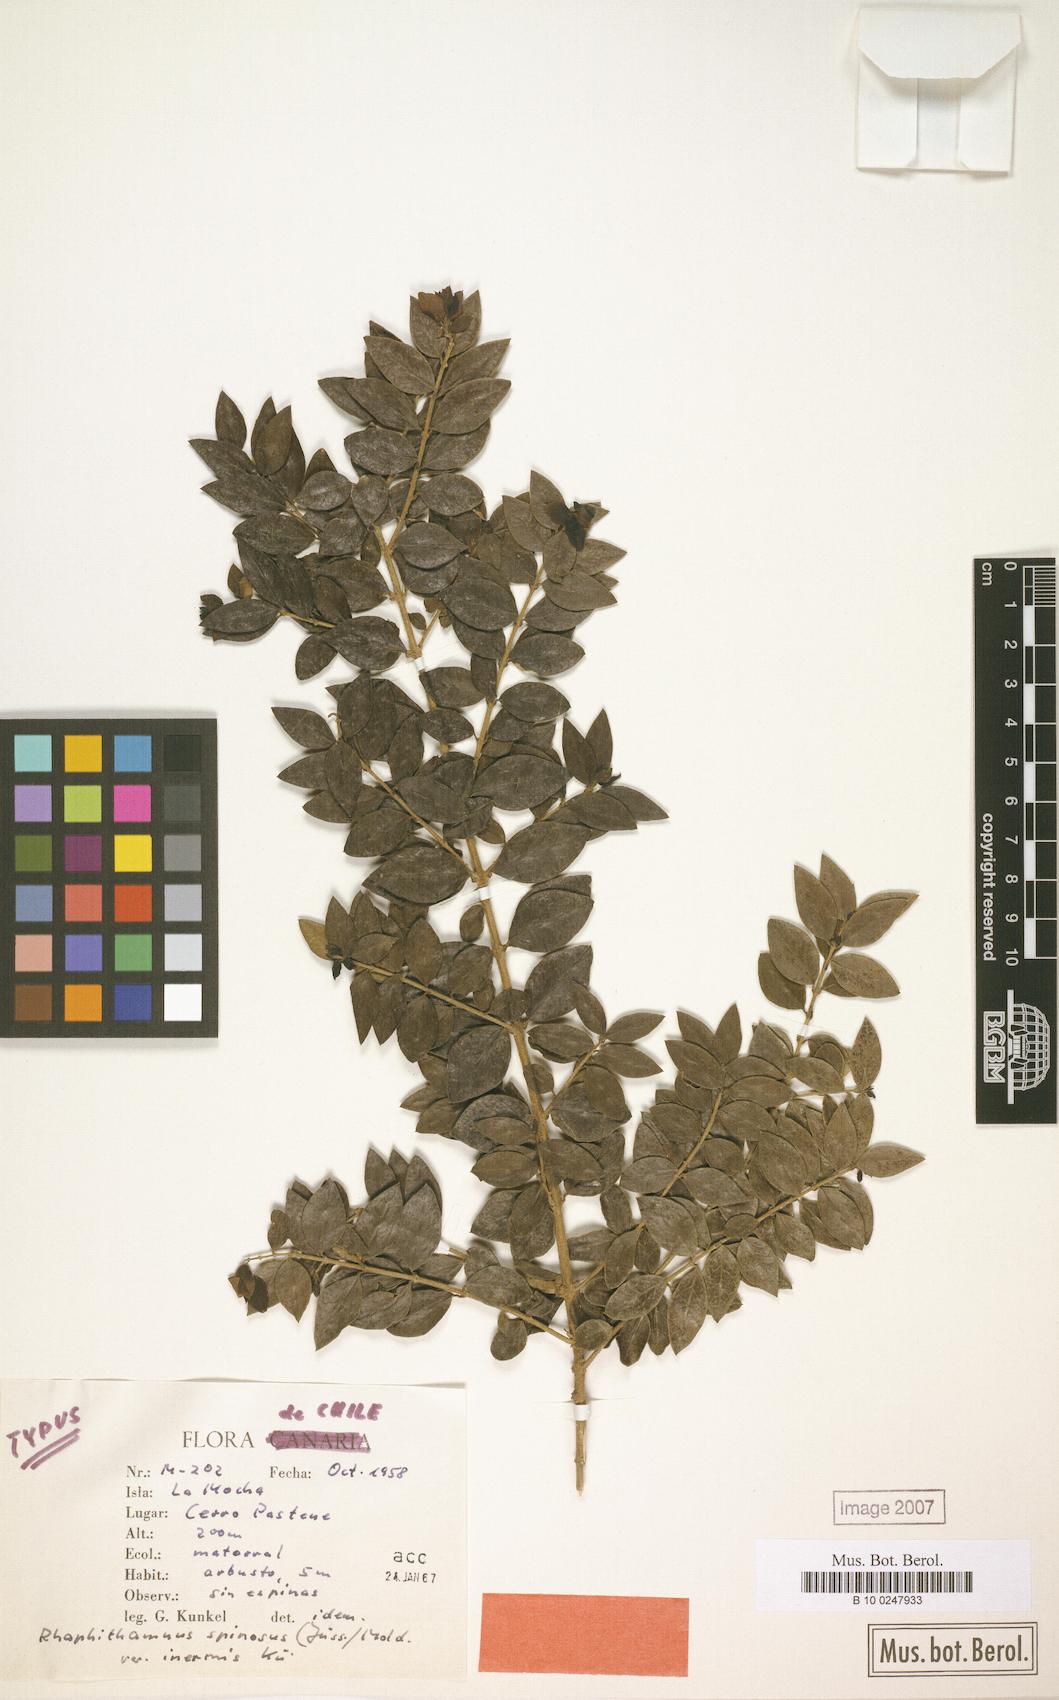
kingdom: Plantae
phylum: Tracheophyta
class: Magnoliopsida
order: Lamiales
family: Verbenaceae
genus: Rhaphithamnus
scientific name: Rhaphithamnus spinosus
